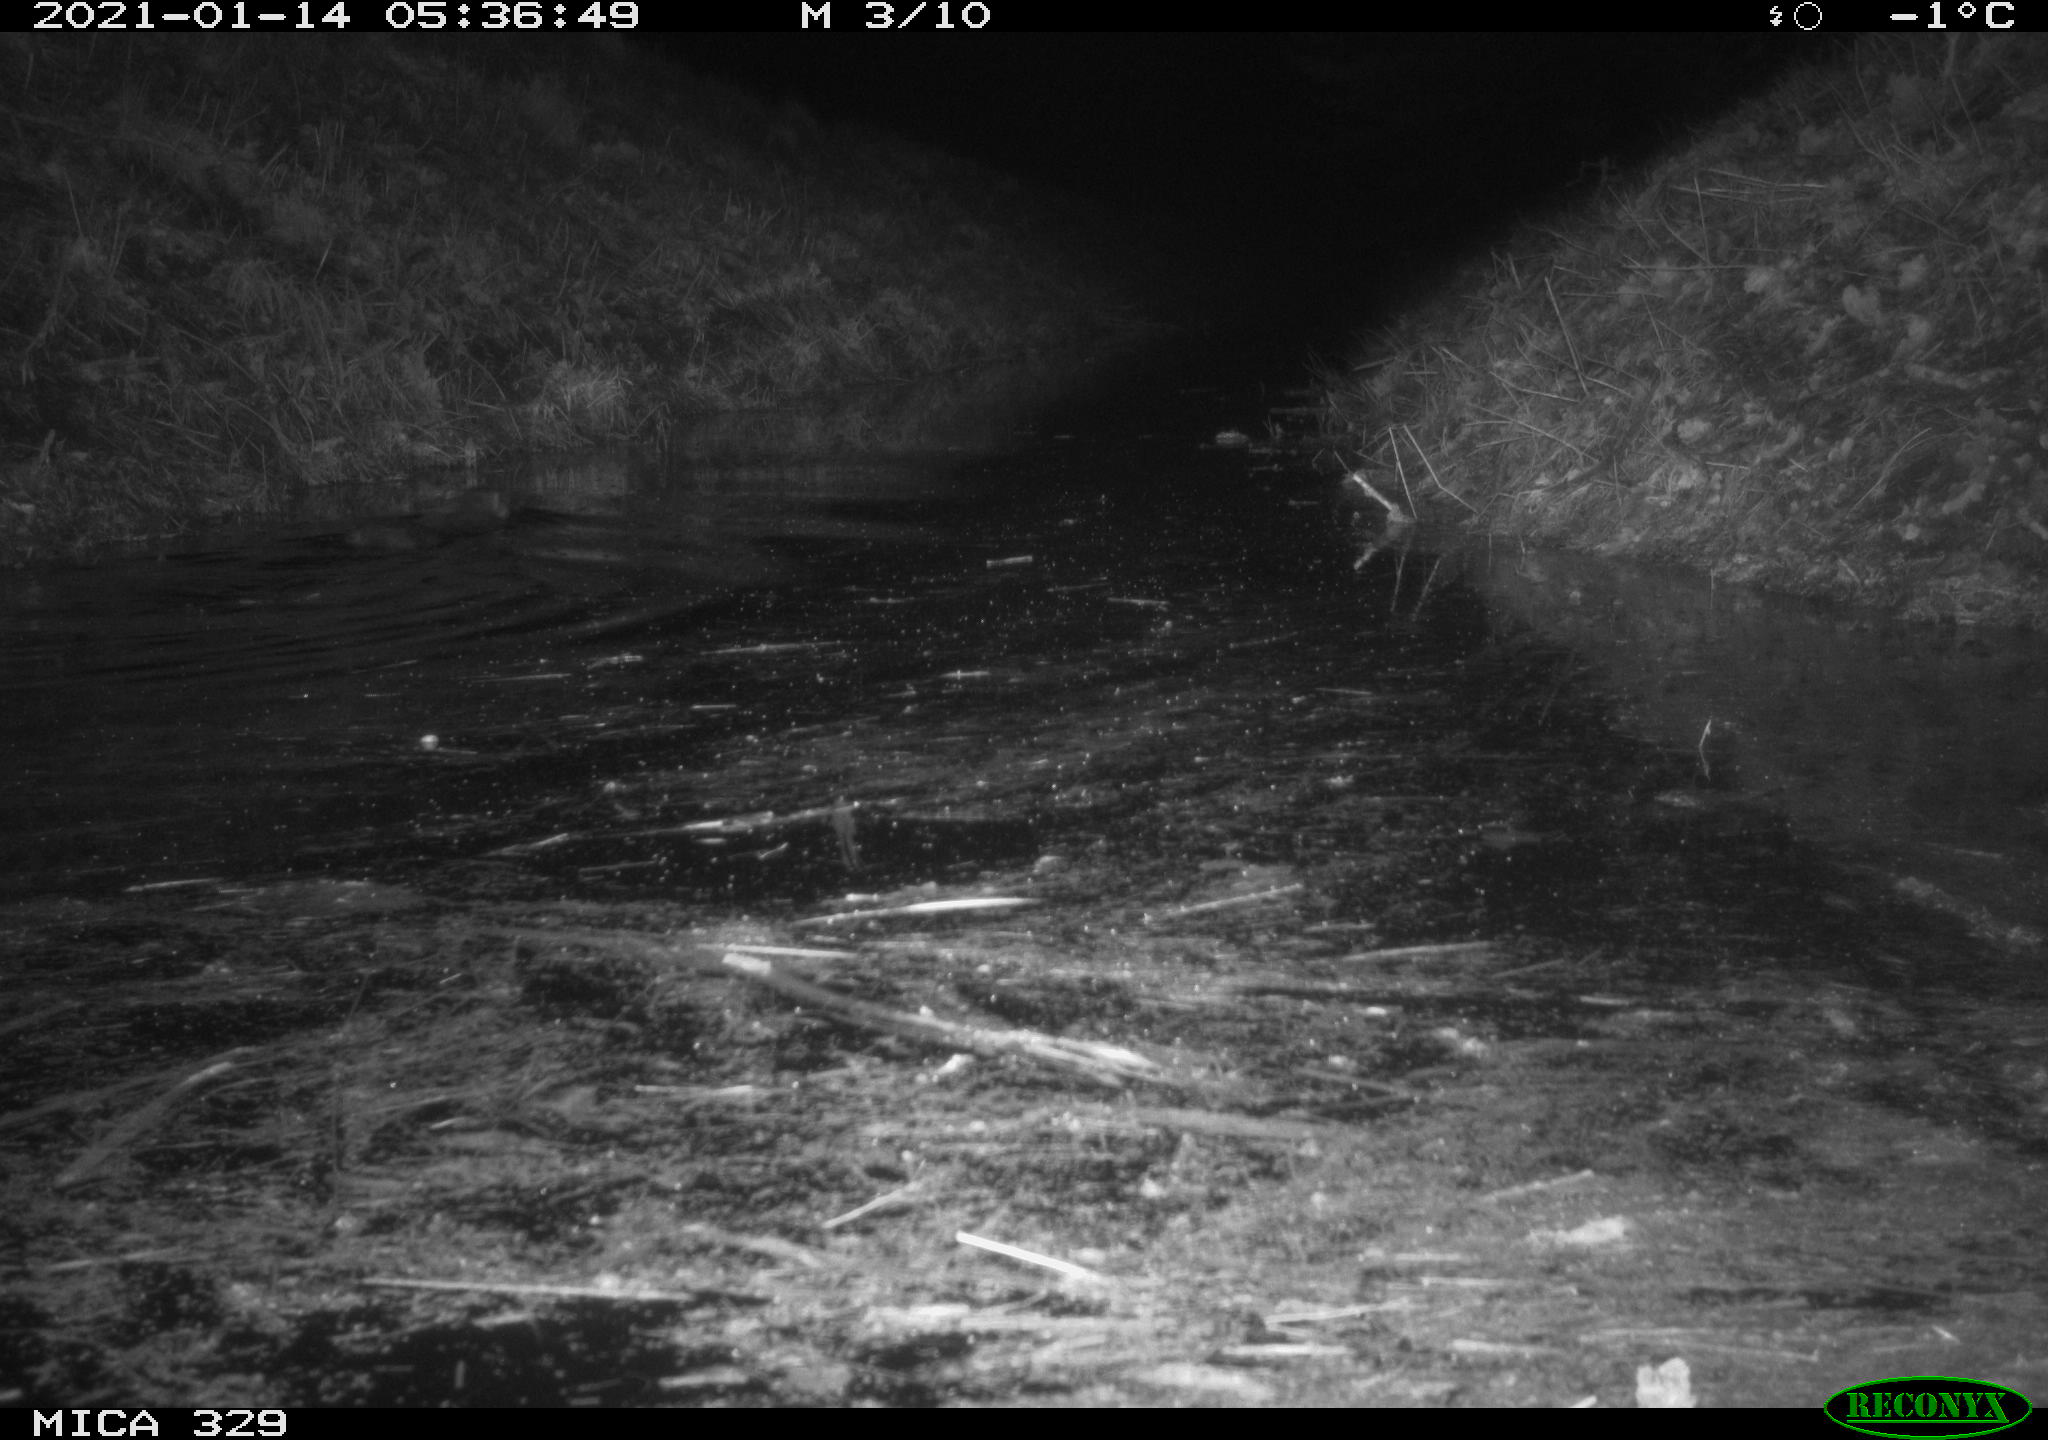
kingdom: Animalia
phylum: Chordata
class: Mammalia
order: Rodentia
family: Myocastoridae
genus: Myocastor
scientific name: Myocastor coypus
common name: Coypu
